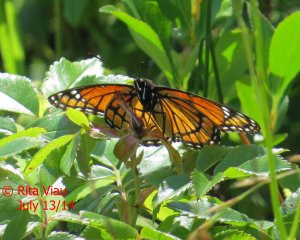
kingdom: Animalia
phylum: Arthropoda
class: Insecta
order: Lepidoptera
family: Nymphalidae
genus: Limenitis
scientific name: Limenitis archippus
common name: Viceroy
